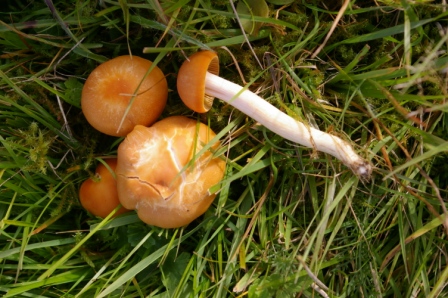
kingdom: Fungi
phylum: Basidiomycota
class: Agaricomycetes
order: Agaricales
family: Hygrophoraceae
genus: Cuphophyllus
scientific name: Cuphophyllus pratensis
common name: eng-vokshat
